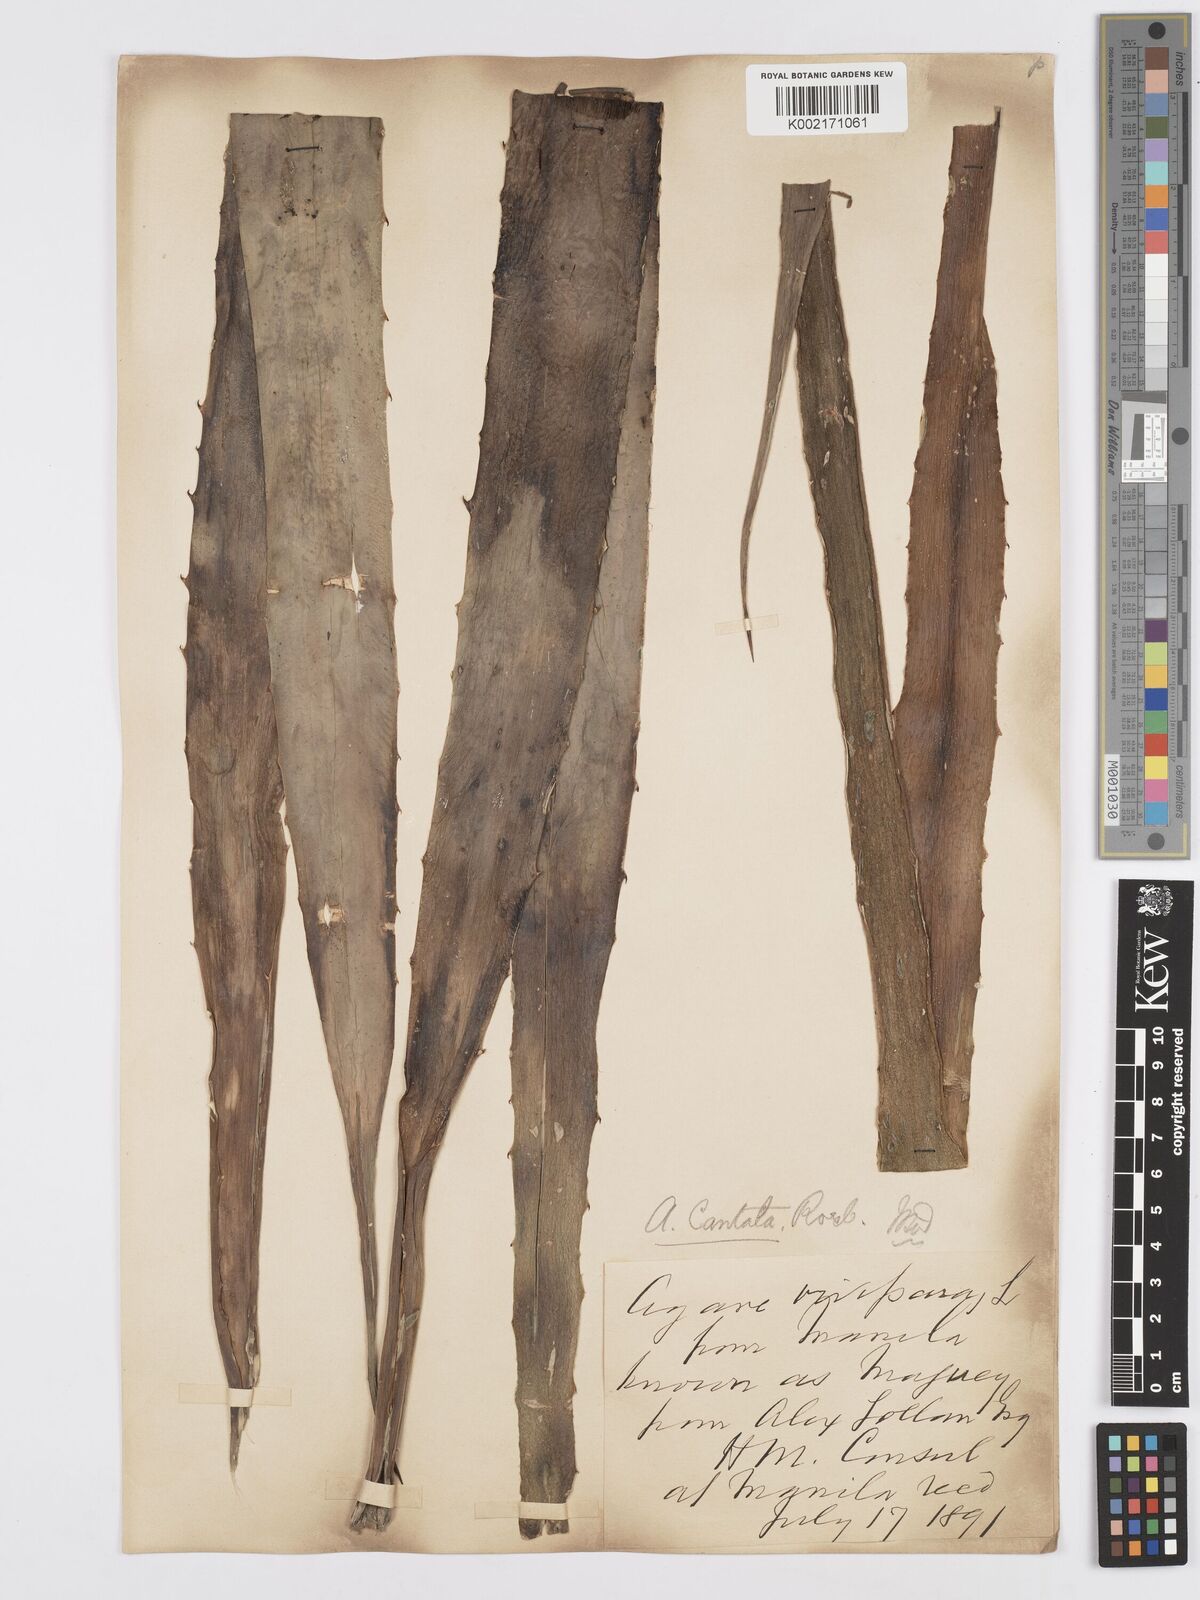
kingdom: Plantae
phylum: Tracheophyta
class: Liliopsida
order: Asparagales
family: Asparagaceae
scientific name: Asparagaceae
